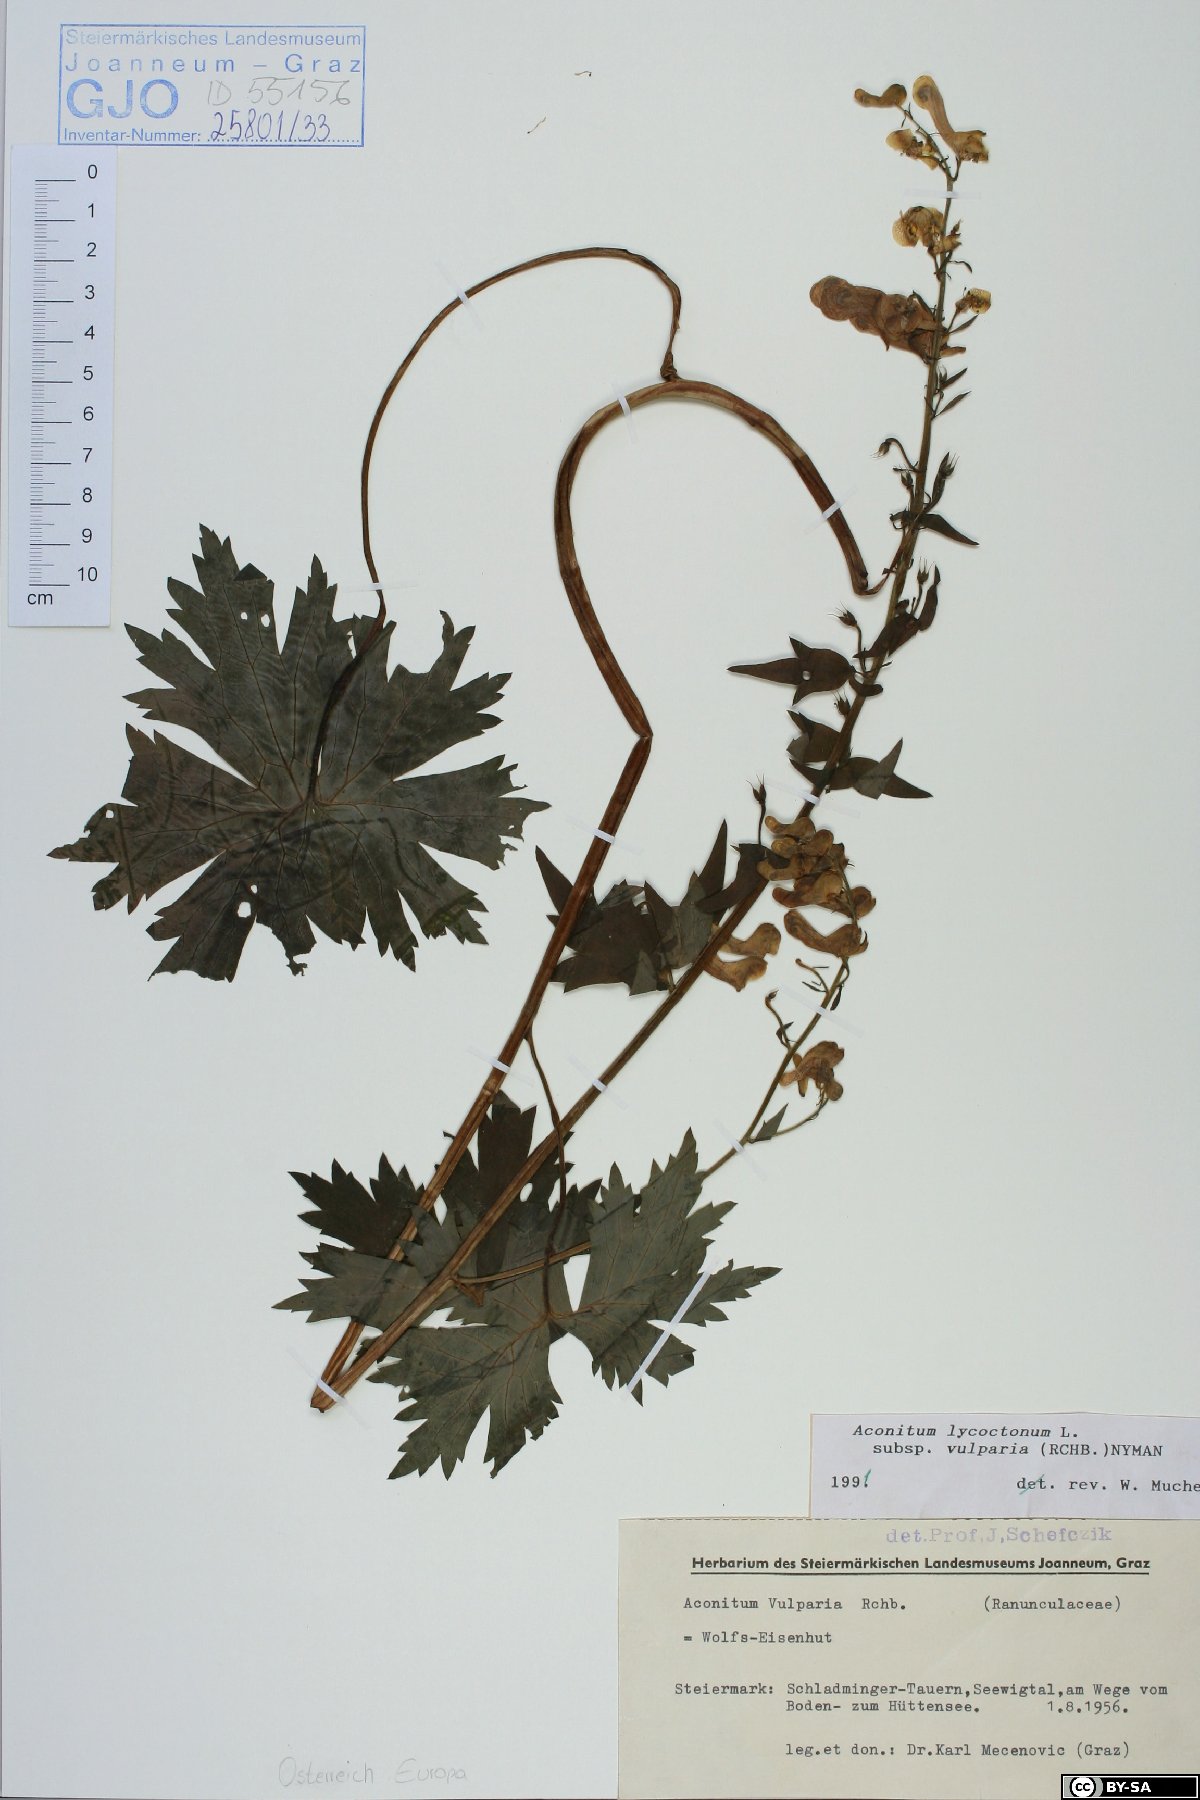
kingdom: Plantae
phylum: Tracheophyta
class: Magnoliopsida
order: Ranunculales
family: Ranunculaceae
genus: Aconitum
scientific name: Aconitum lycoctonum
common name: Wolf's-bane
